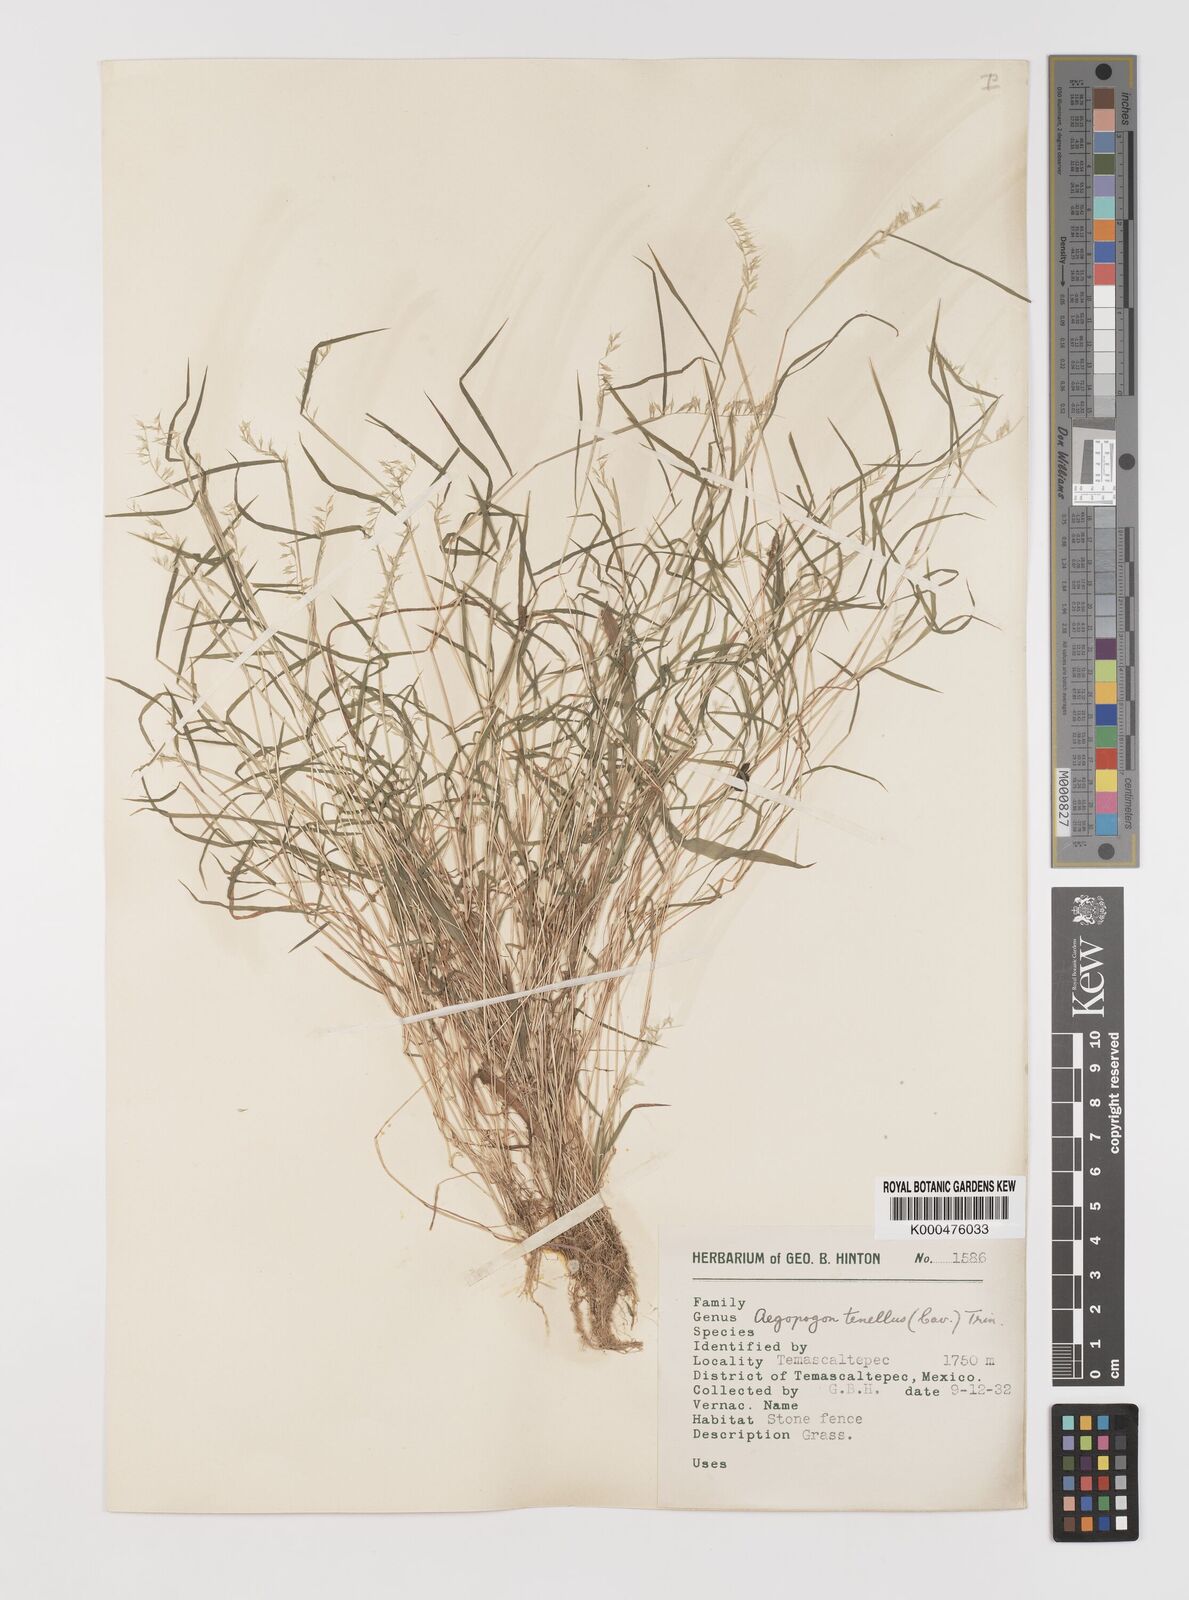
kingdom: Plantae
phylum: Tracheophyta
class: Liliopsida
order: Poales
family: Poaceae
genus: Muhlenbergia
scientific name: Muhlenbergia uniseta
